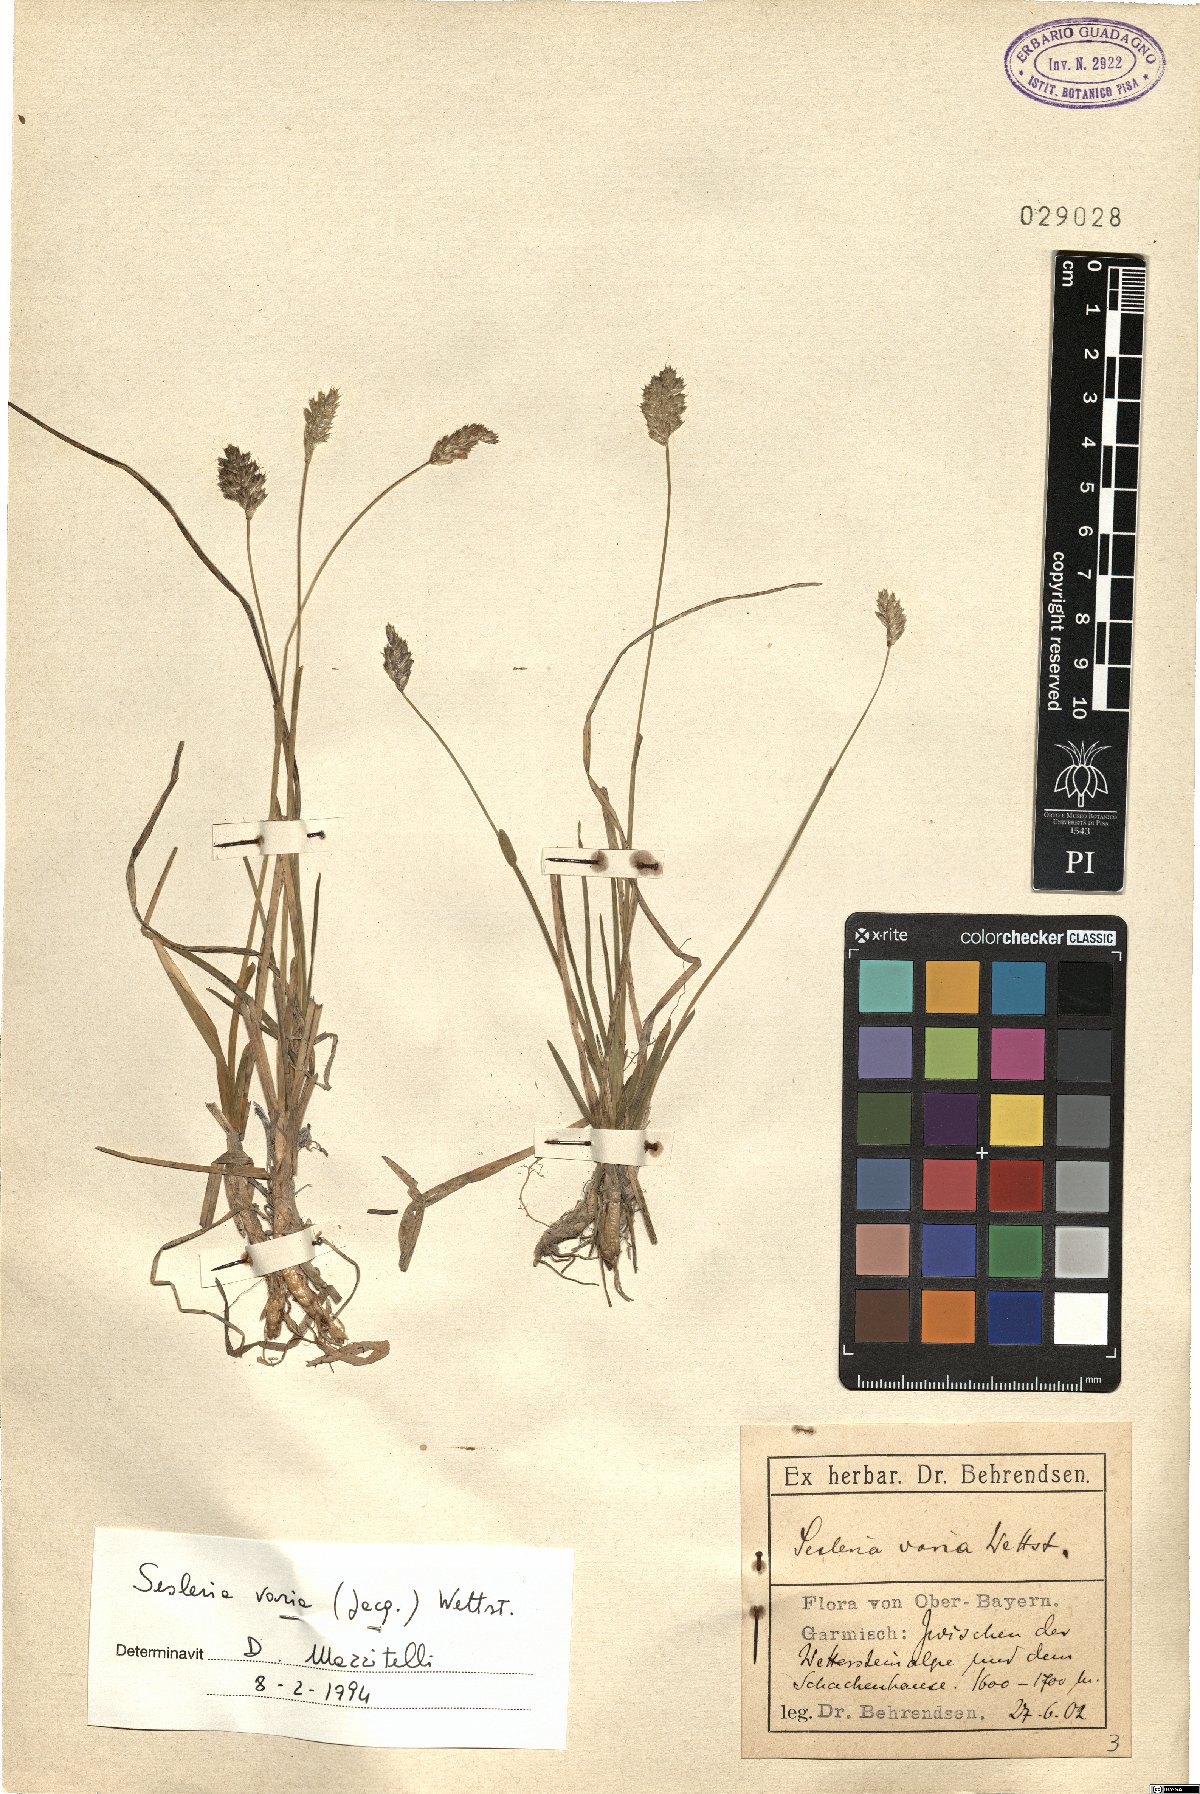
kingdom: Plantae
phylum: Tracheophyta
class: Liliopsida
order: Poales
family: Poaceae
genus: Sesleria
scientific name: Sesleria caerulea
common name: Blue moor-grass
